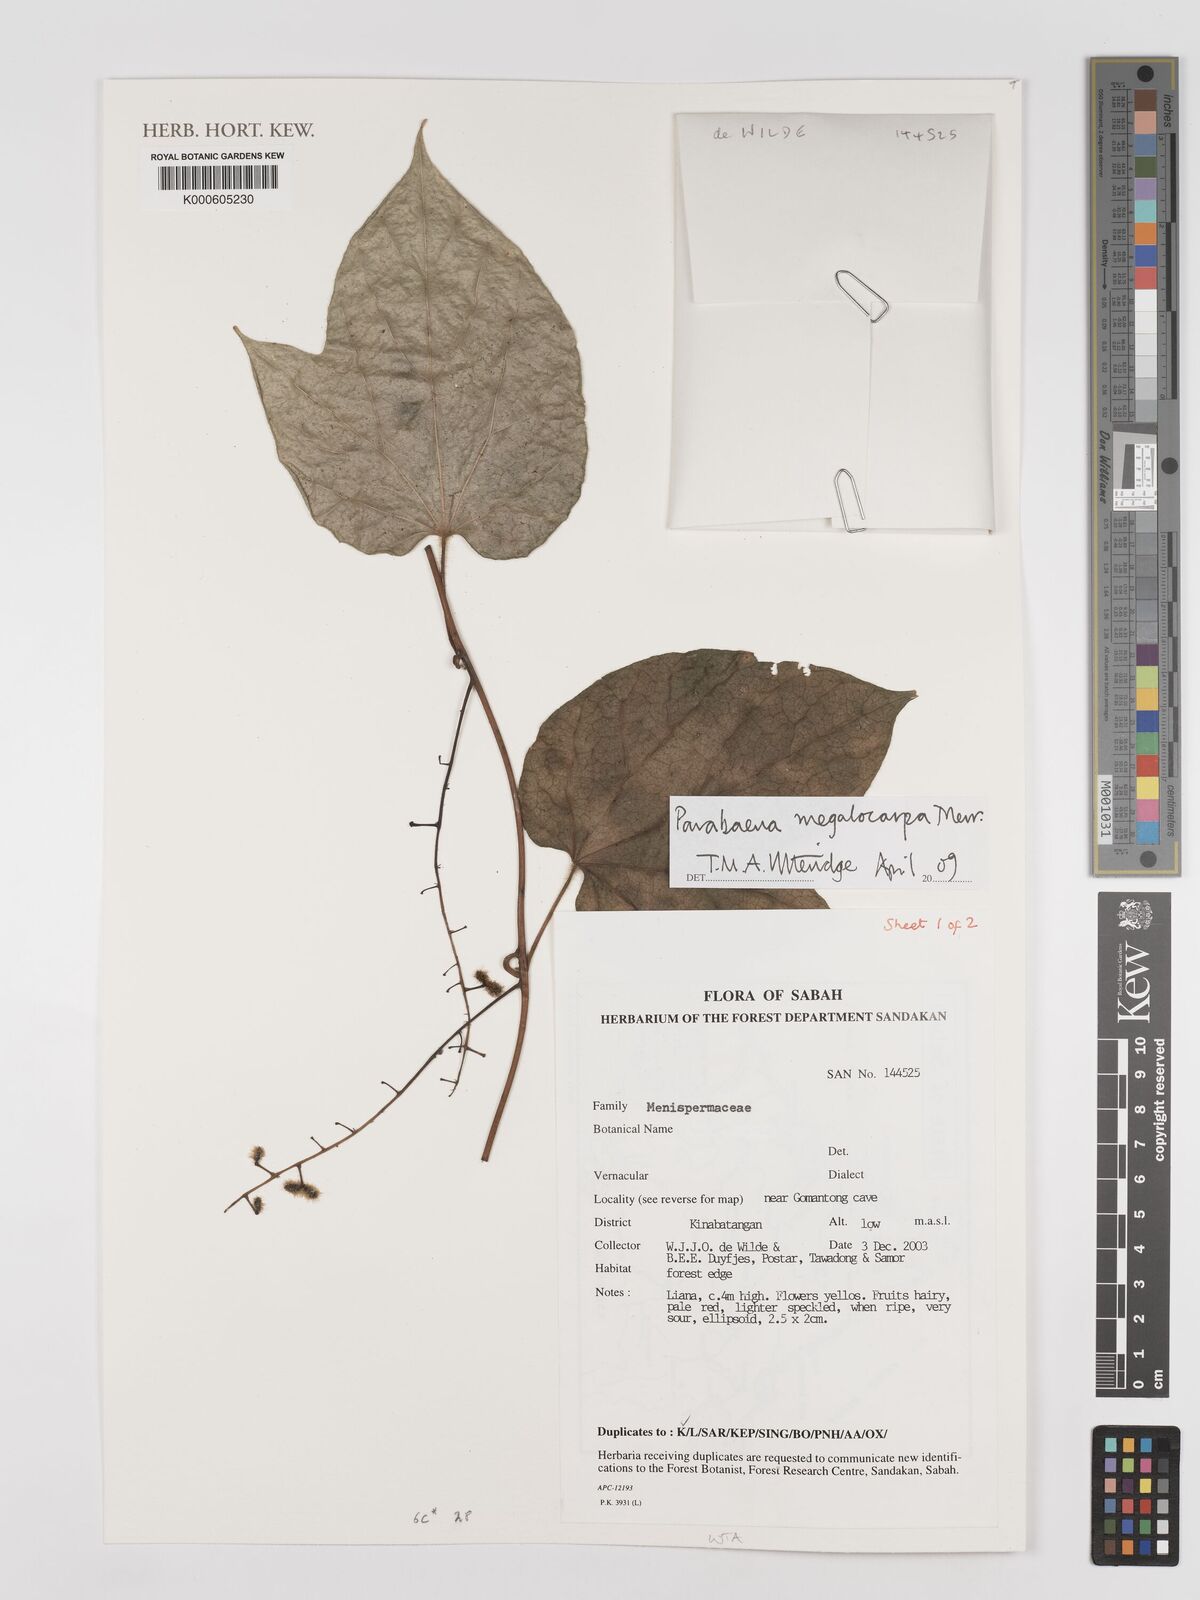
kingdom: Plantae
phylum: Tracheophyta
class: Magnoliopsida
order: Ranunculales
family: Menispermaceae
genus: Parabaena
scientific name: Parabaena megalocarpa
